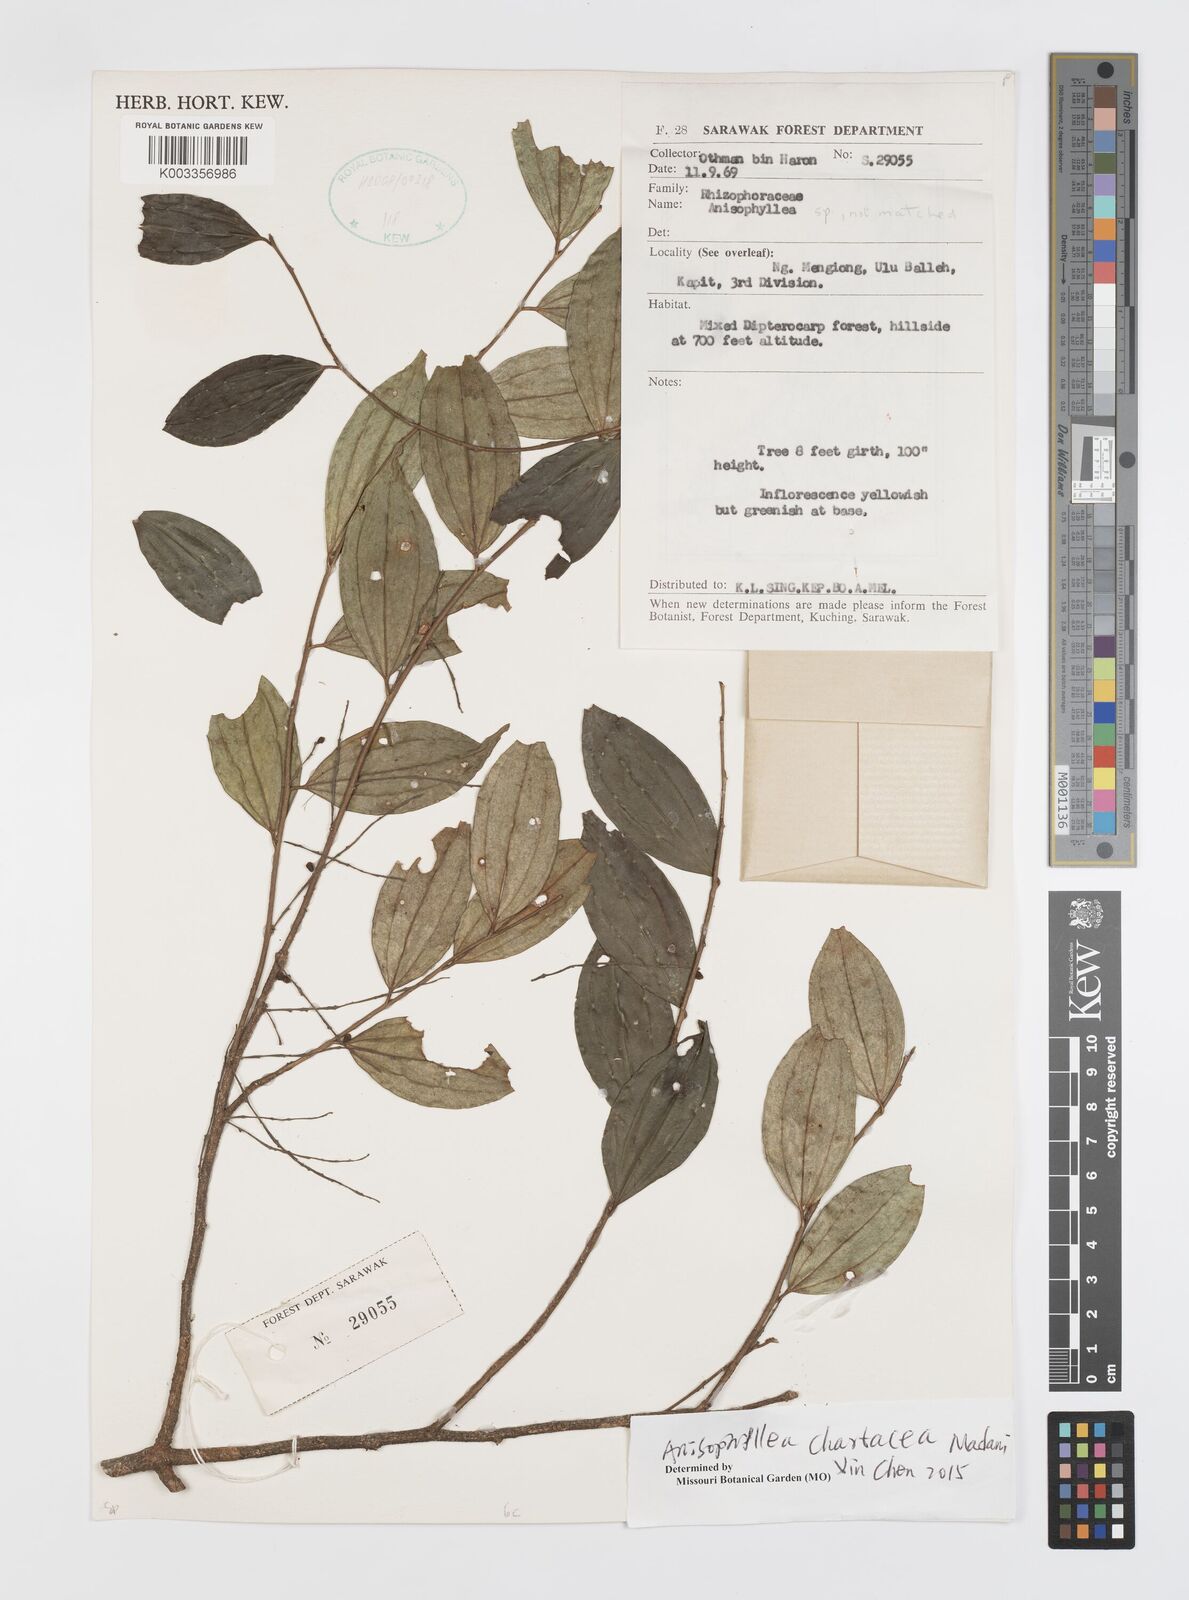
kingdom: Plantae
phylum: Tracheophyta
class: Magnoliopsida
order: Cucurbitales
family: Anisophylleaceae
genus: Anisophyllea
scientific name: Anisophyllea chartacea
